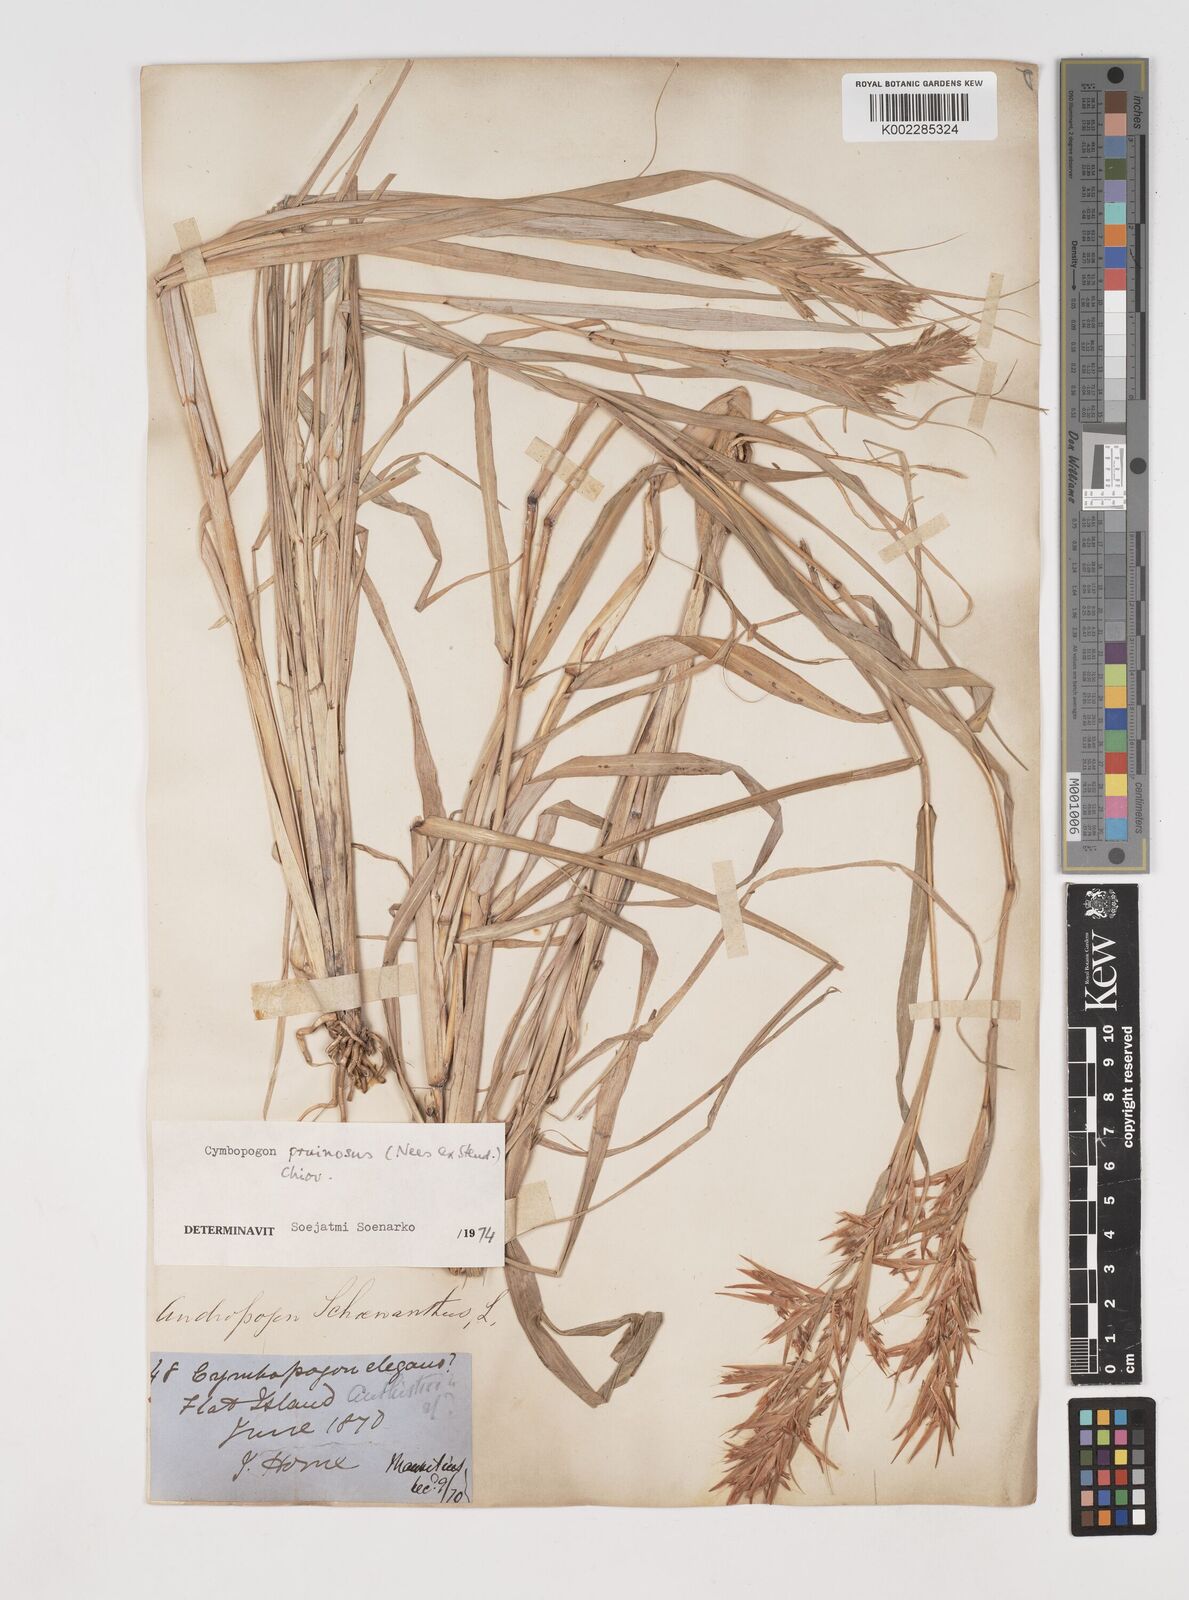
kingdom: Plantae
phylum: Tracheophyta
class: Liliopsida
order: Poales
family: Poaceae
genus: Cymbopogon
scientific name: Cymbopogon pruinosus
